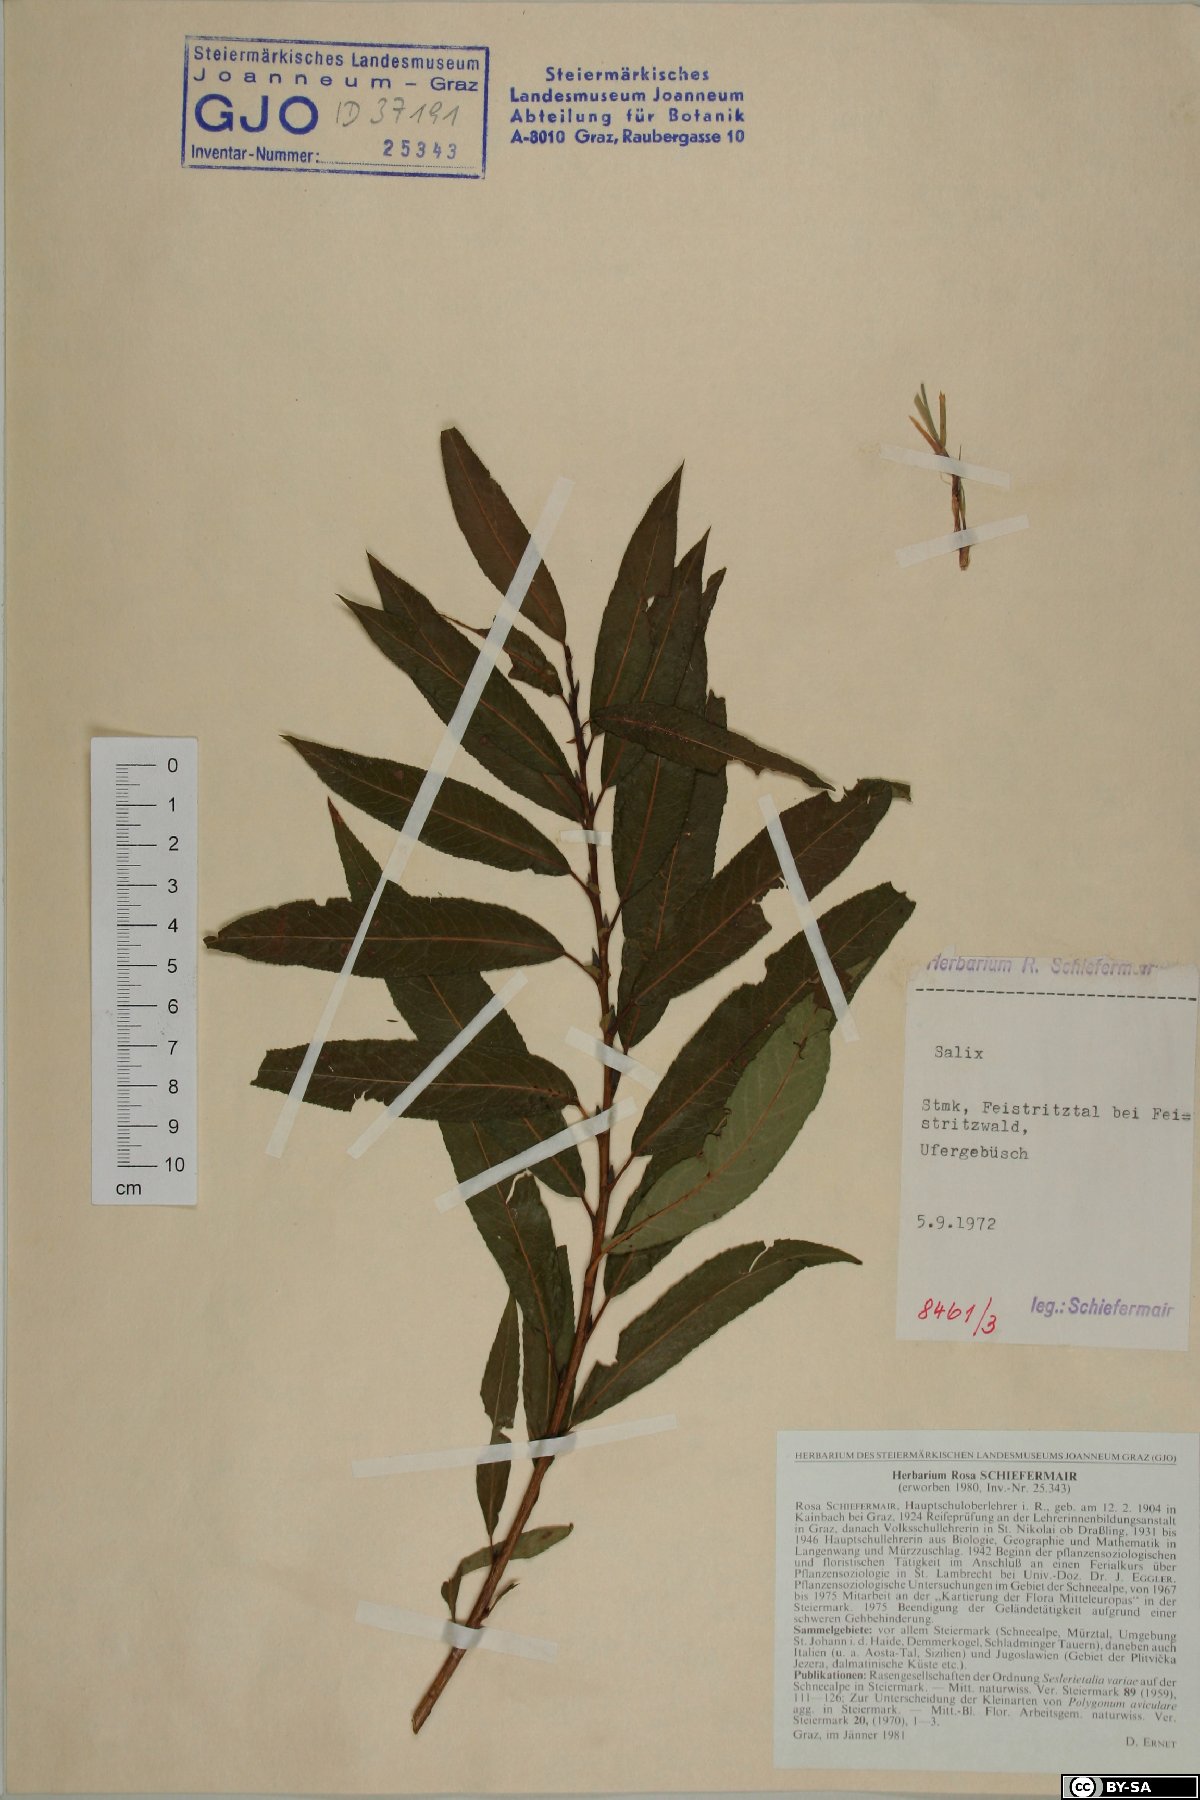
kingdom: Plantae
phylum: Tracheophyta
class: Magnoliopsida
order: Malpighiales
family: Salicaceae
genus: Salix
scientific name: Salix
